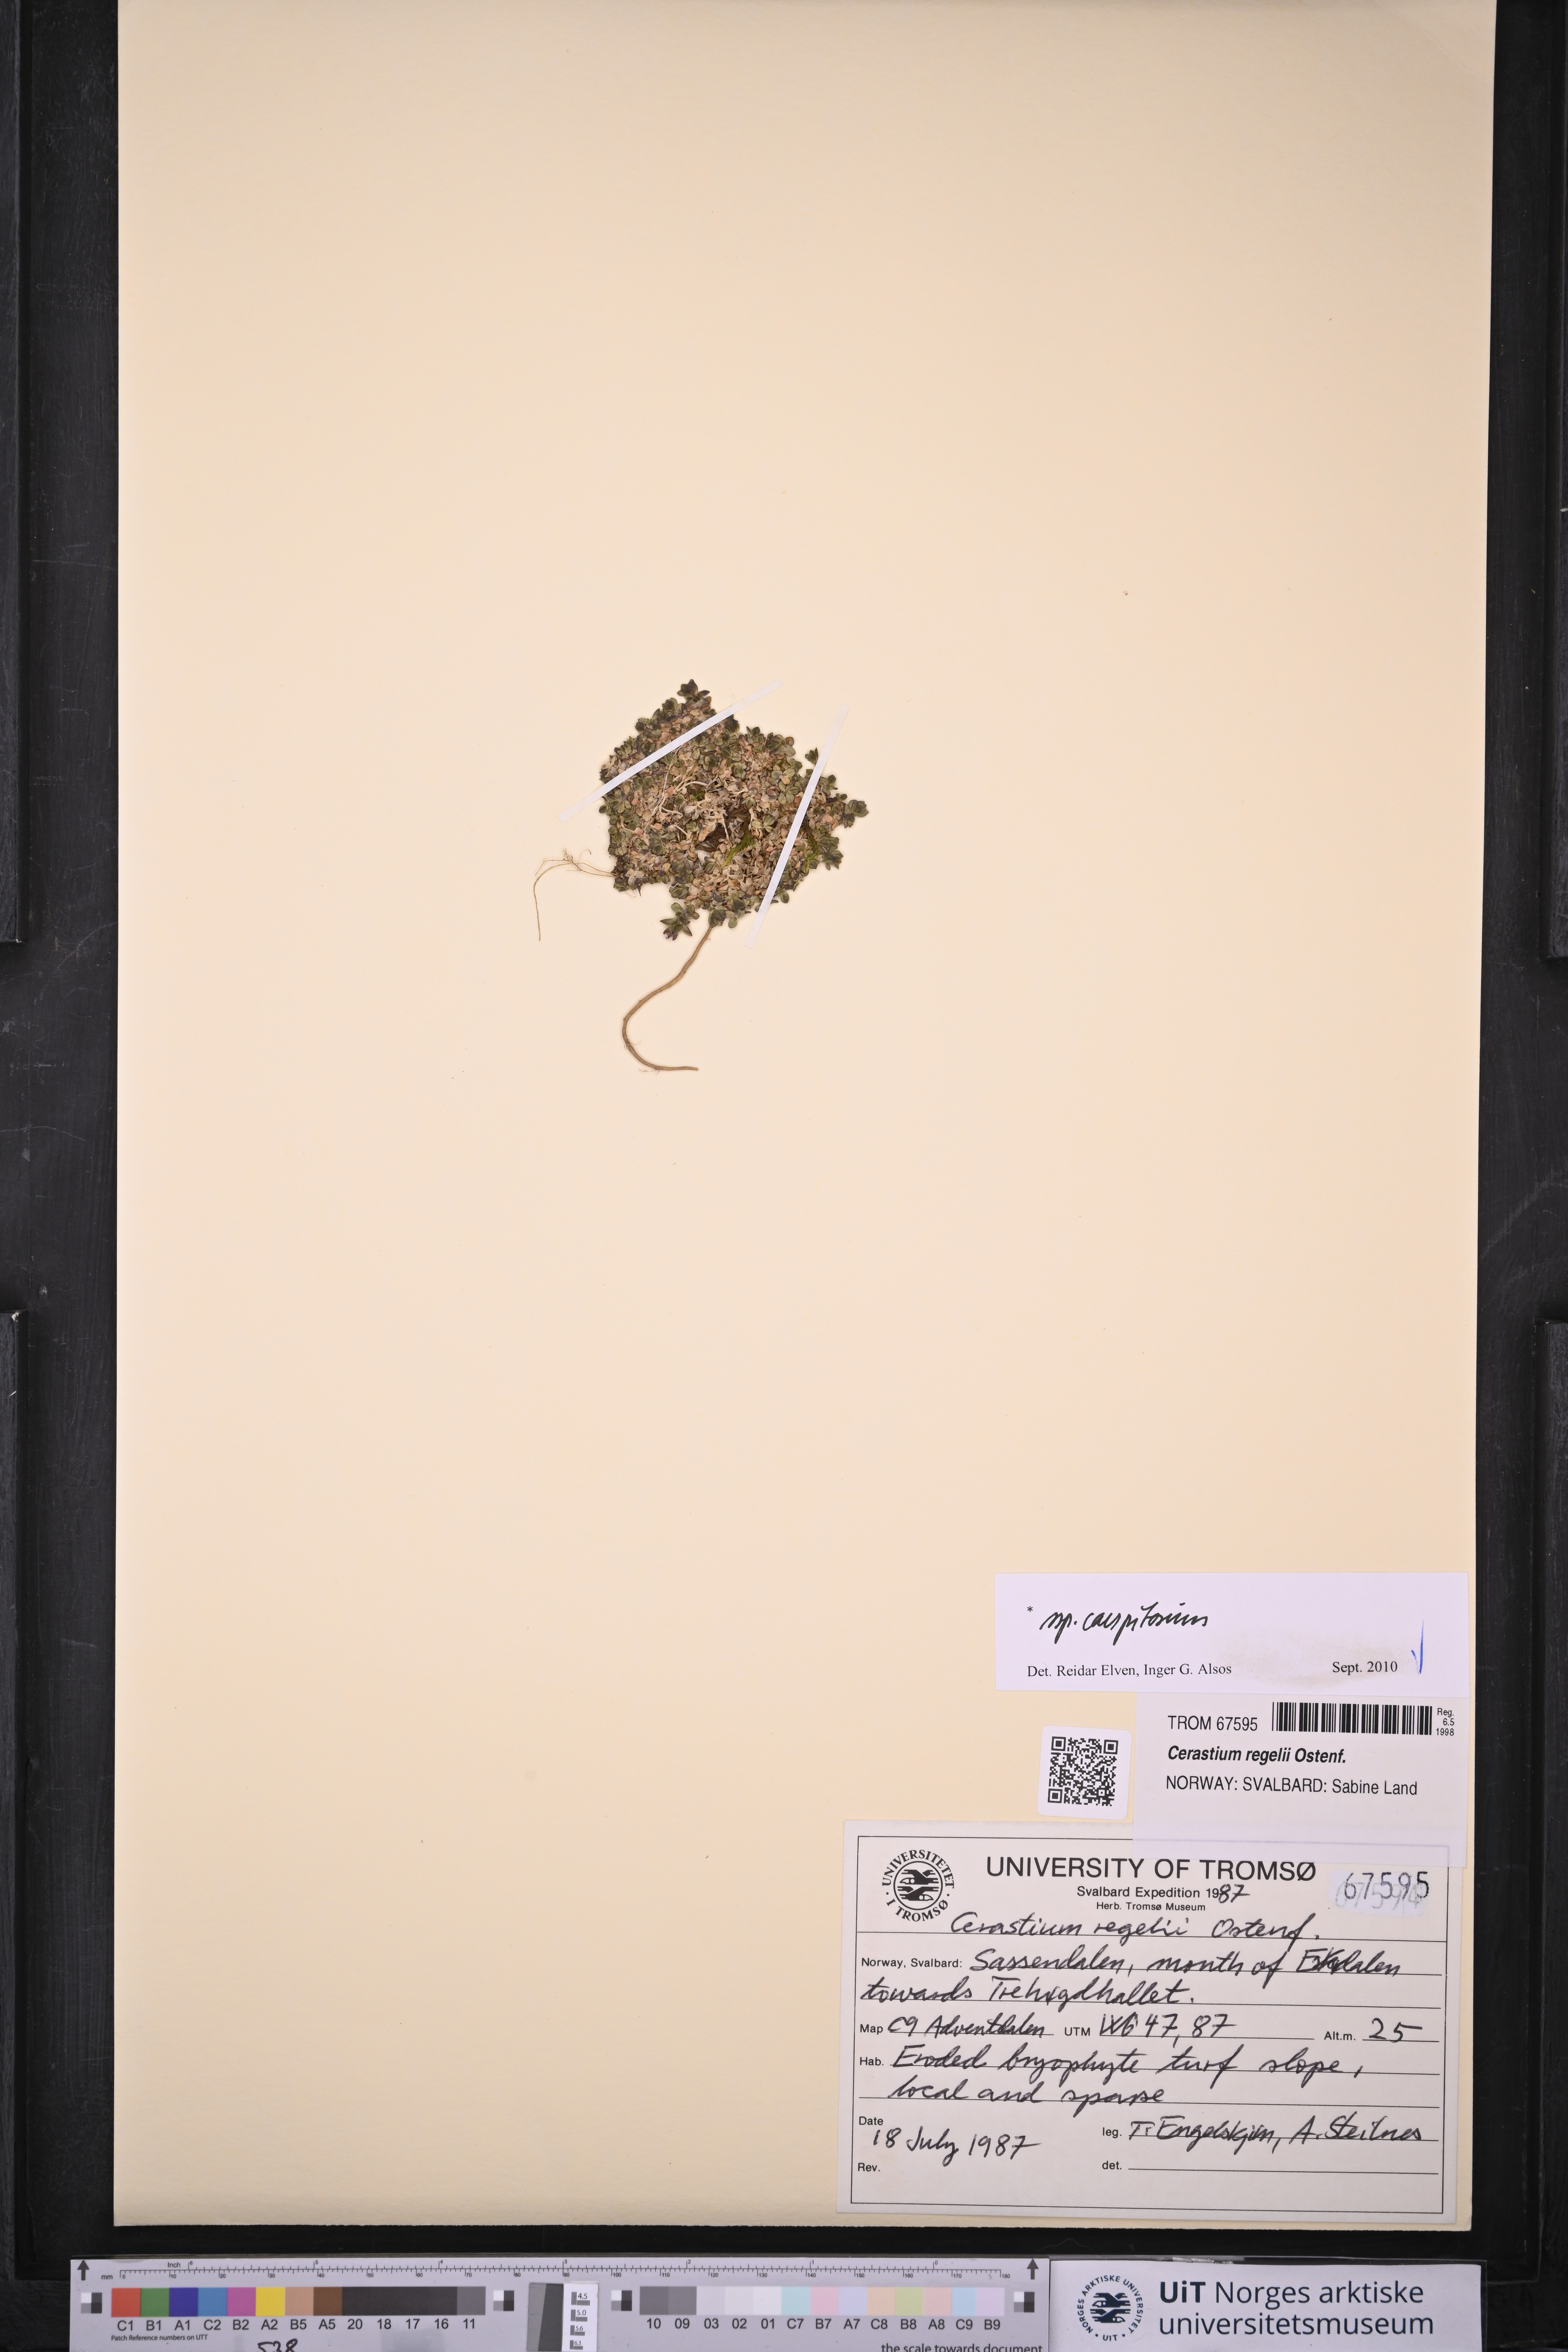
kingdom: Plantae
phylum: Tracheophyta
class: Magnoliopsida
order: Caryophyllales
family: Caryophyllaceae
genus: Cerastium
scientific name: Cerastium regelii
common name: Regel's chickweed
